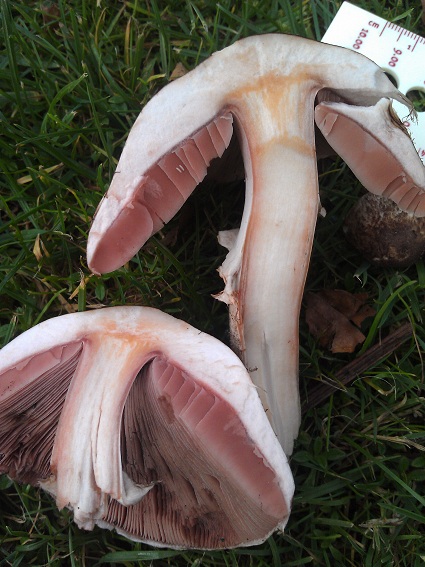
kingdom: Fungi
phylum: Basidiomycota
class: Agaricomycetes
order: Agaricales
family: Agaricaceae
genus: Agaricus
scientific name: Agaricus langei
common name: stor blod-champignon
